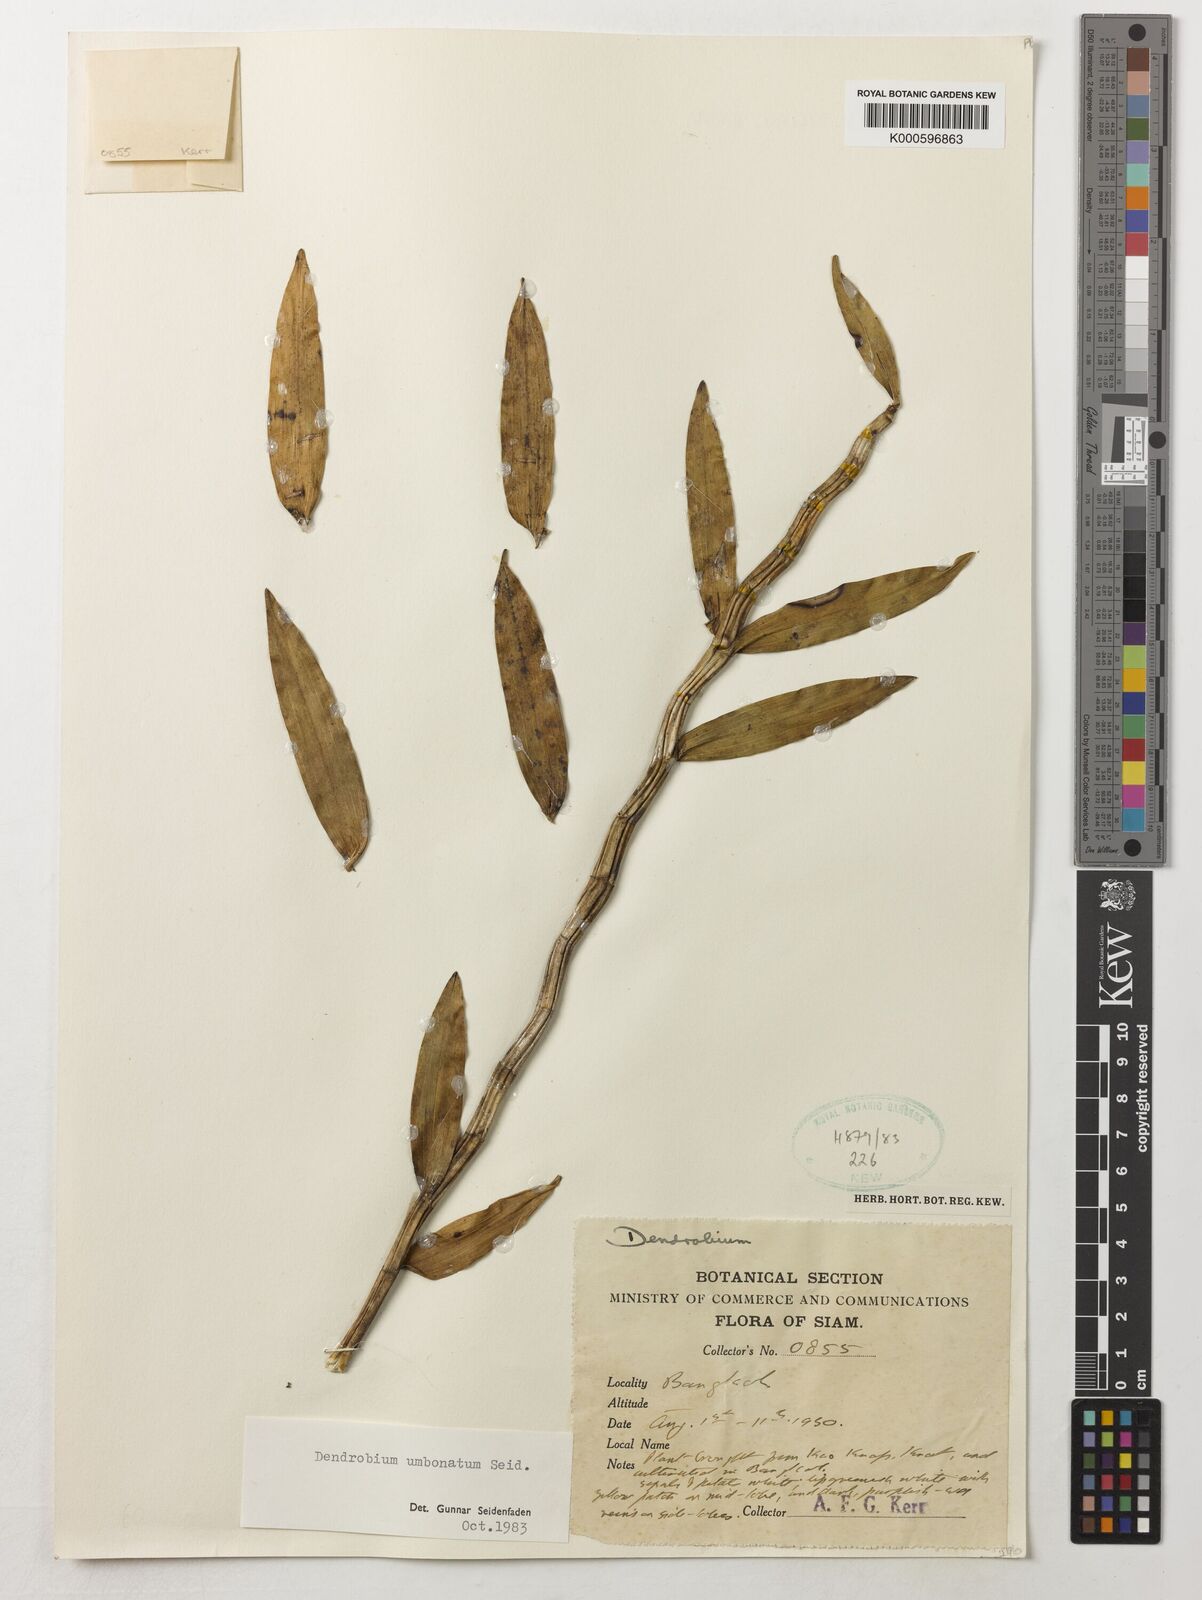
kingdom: Plantae
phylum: Tracheophyta
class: Liliopsida
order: Asparagales
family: Orchidaceae
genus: Dendrobium
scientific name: Dendrobium umbonatum
